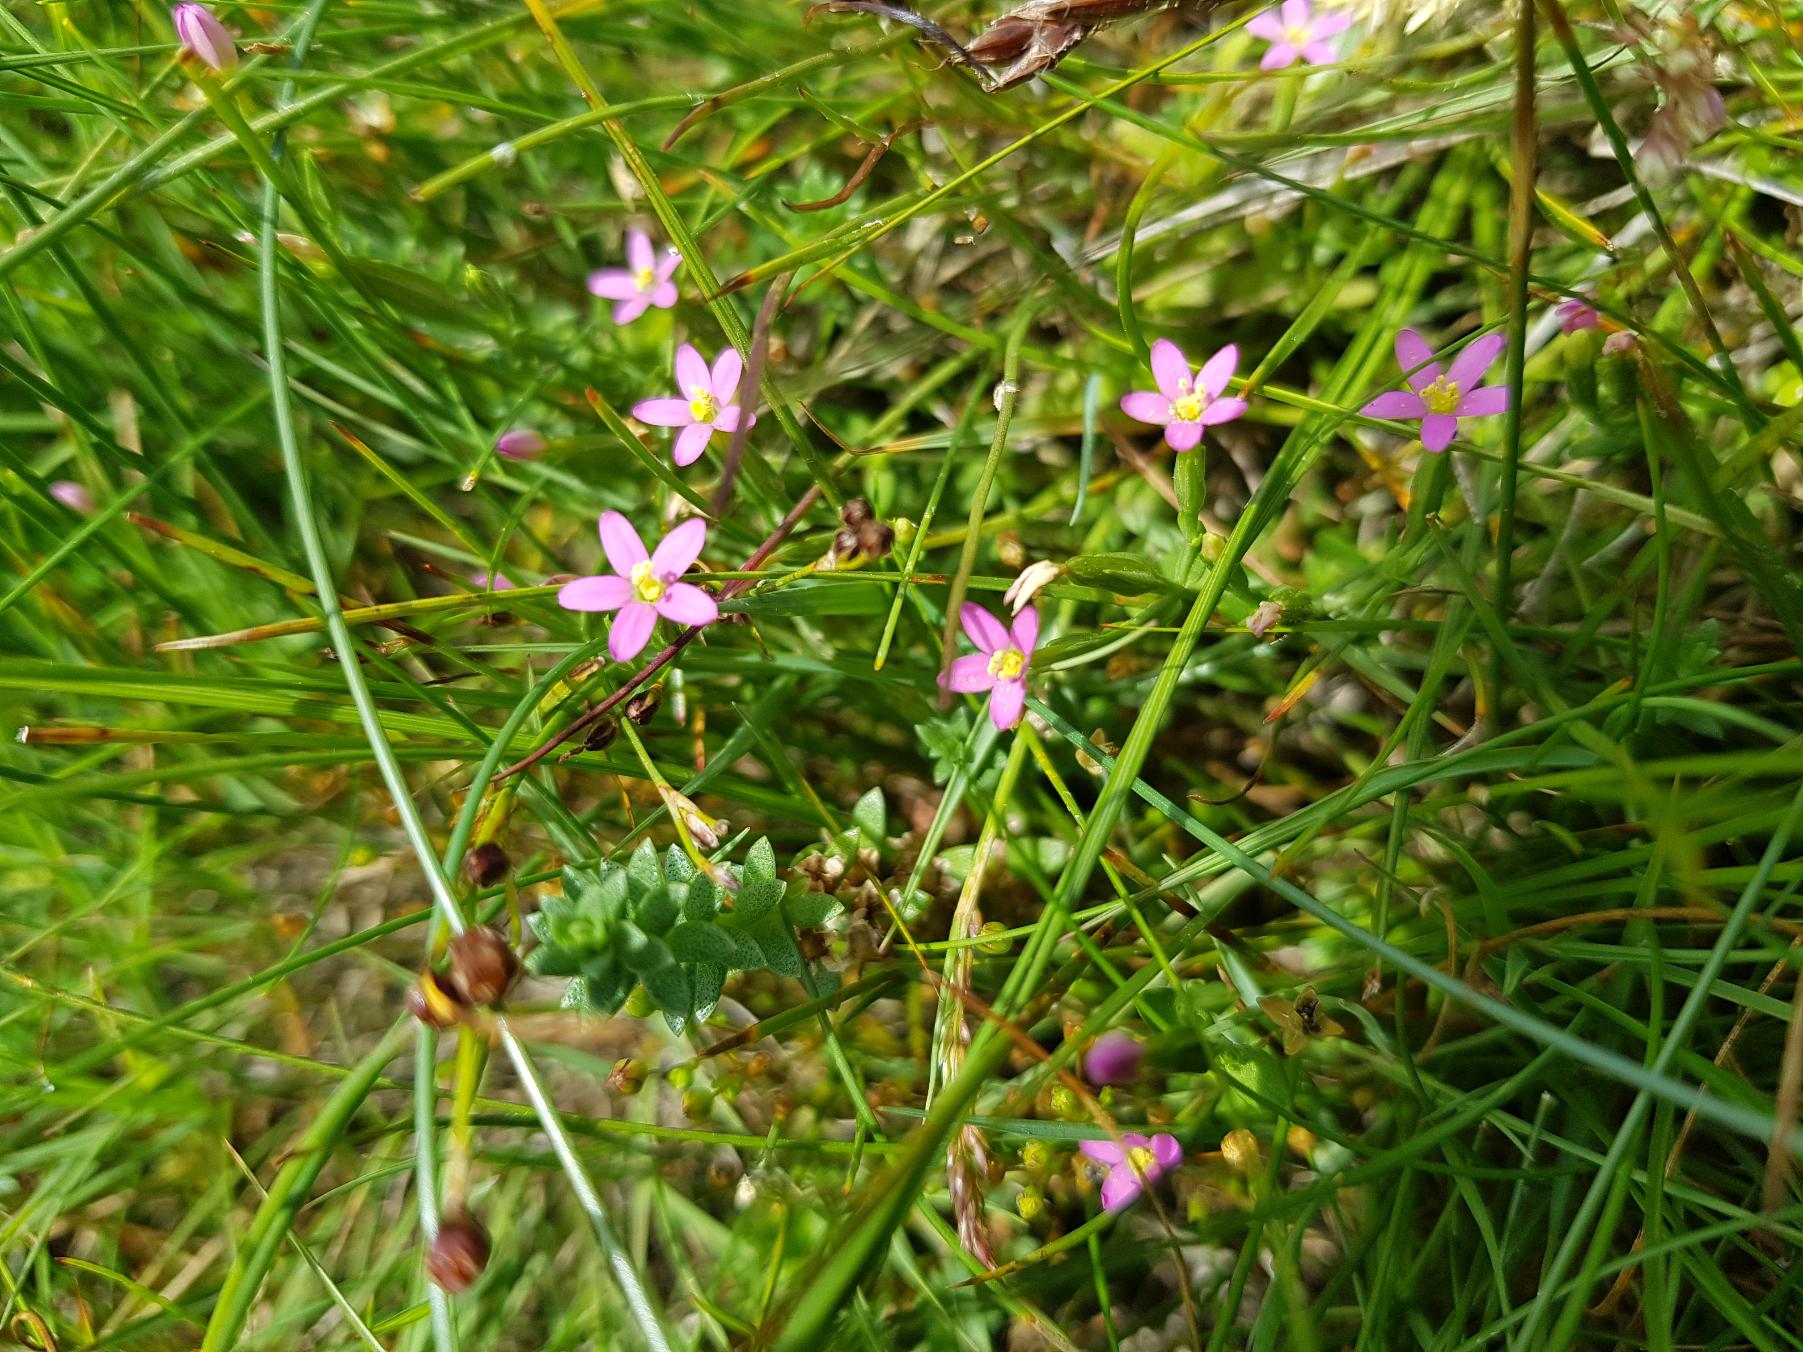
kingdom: Plantae
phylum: Tracheophyta
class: Magnoliopsida
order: Gentianales
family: Gentianaceae
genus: Centaurium
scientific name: Centaurium pulchellum
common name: Liden tusindgylden
